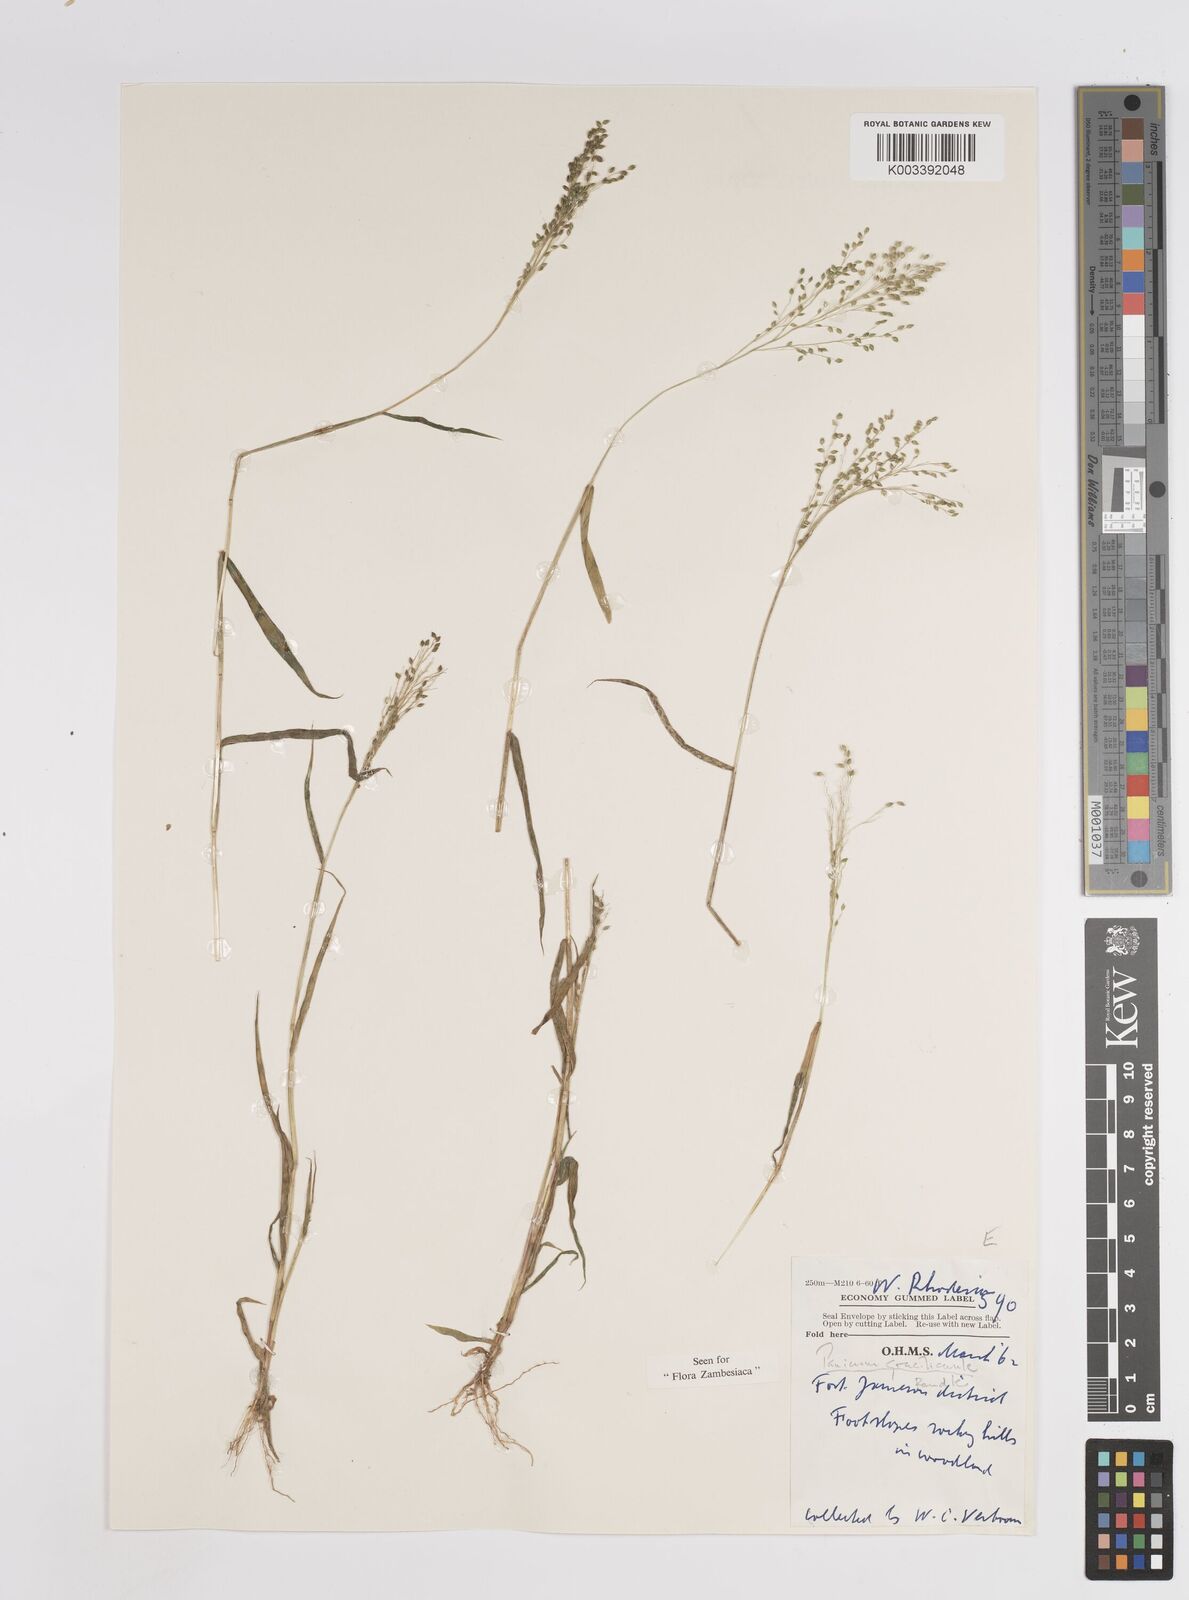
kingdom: Plantae
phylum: Tracheophyta
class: Liliopsida
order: Poales
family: Poaceae
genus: Trichanthecium
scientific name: Trichanthecium gracilicaule
